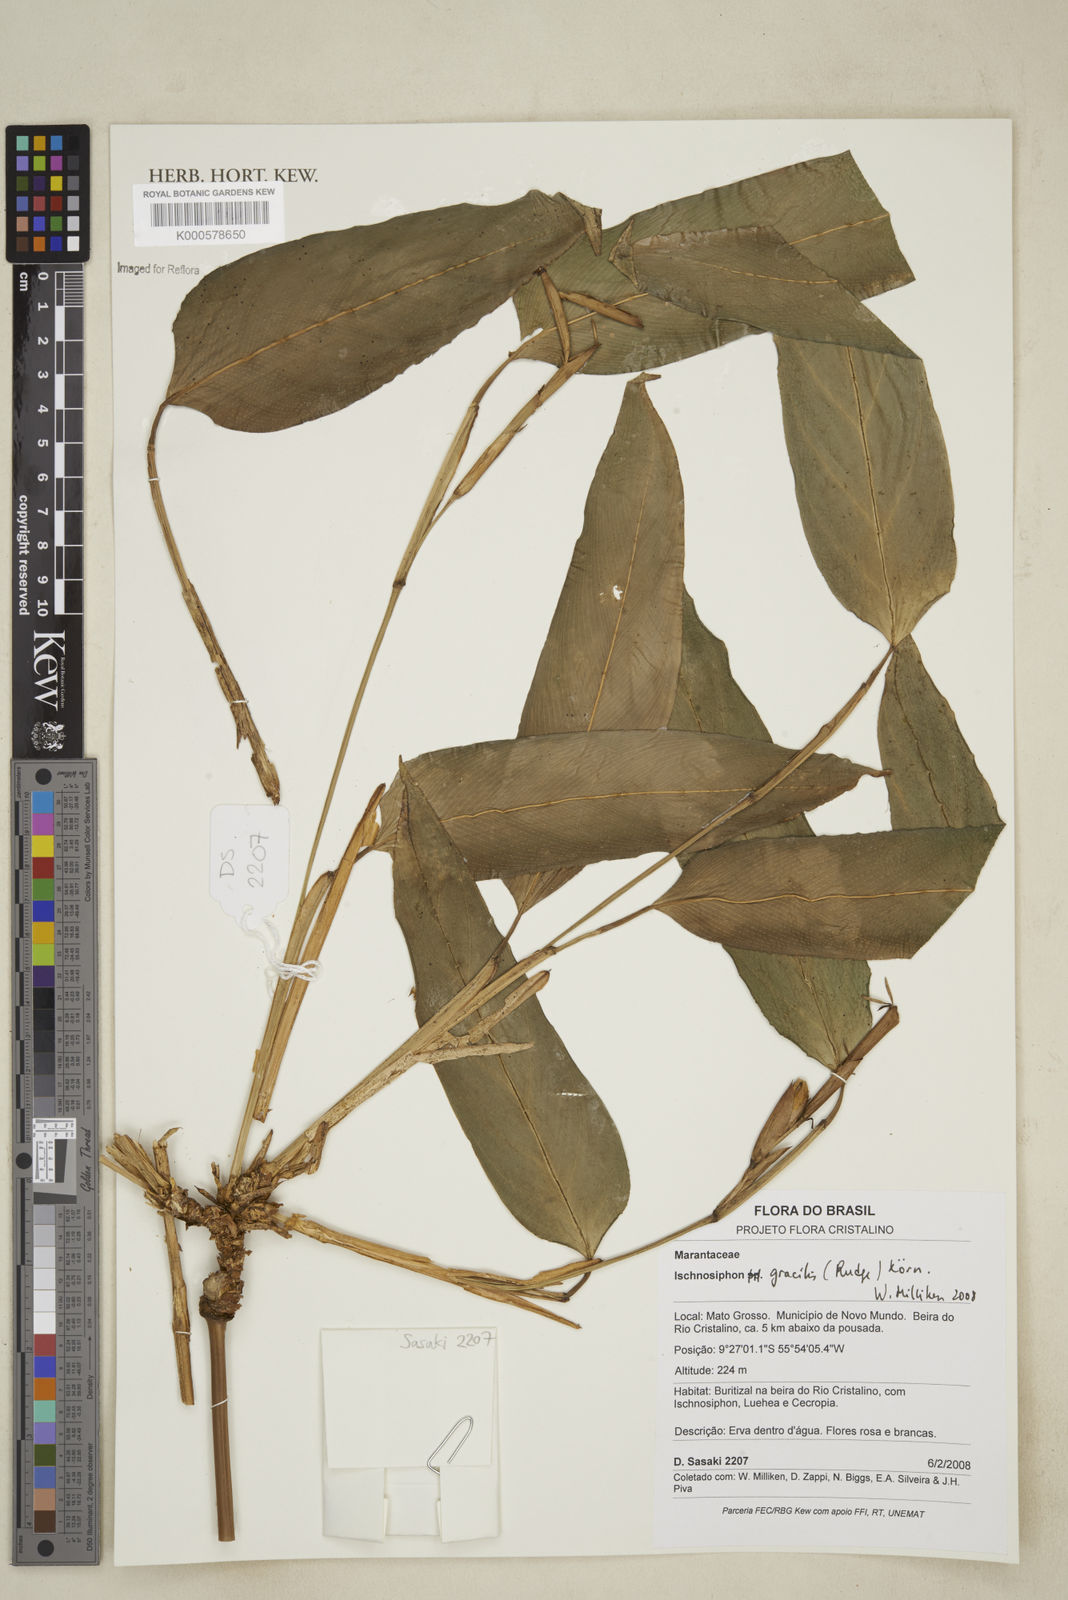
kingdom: Plantae
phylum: Tracheophyta
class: Liliopsida
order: Zingiberales
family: Marantaceae
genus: Ischnosiphon
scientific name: Ischnosiphon
